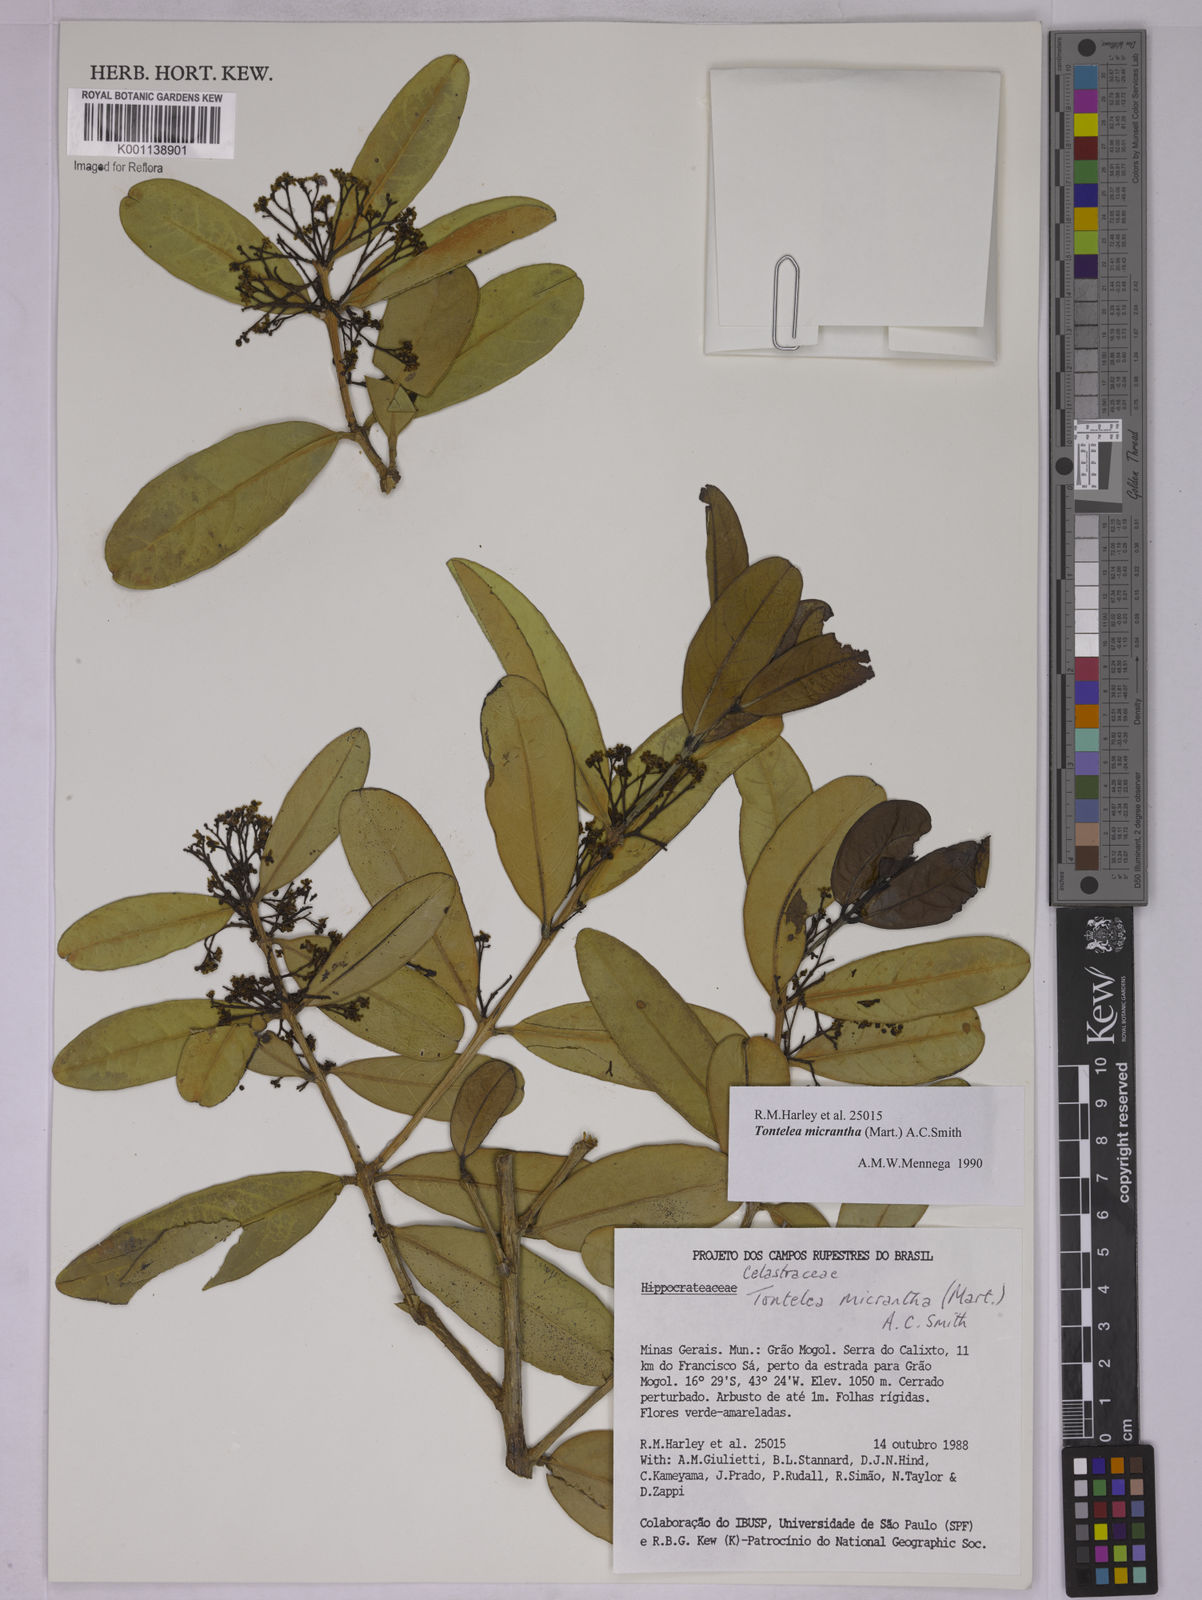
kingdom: Plantae
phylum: Tracheophyta
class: Magnoliopsida
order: Celastrales
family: Celastraceae
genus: Tontelea
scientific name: Tontelea micrantha
